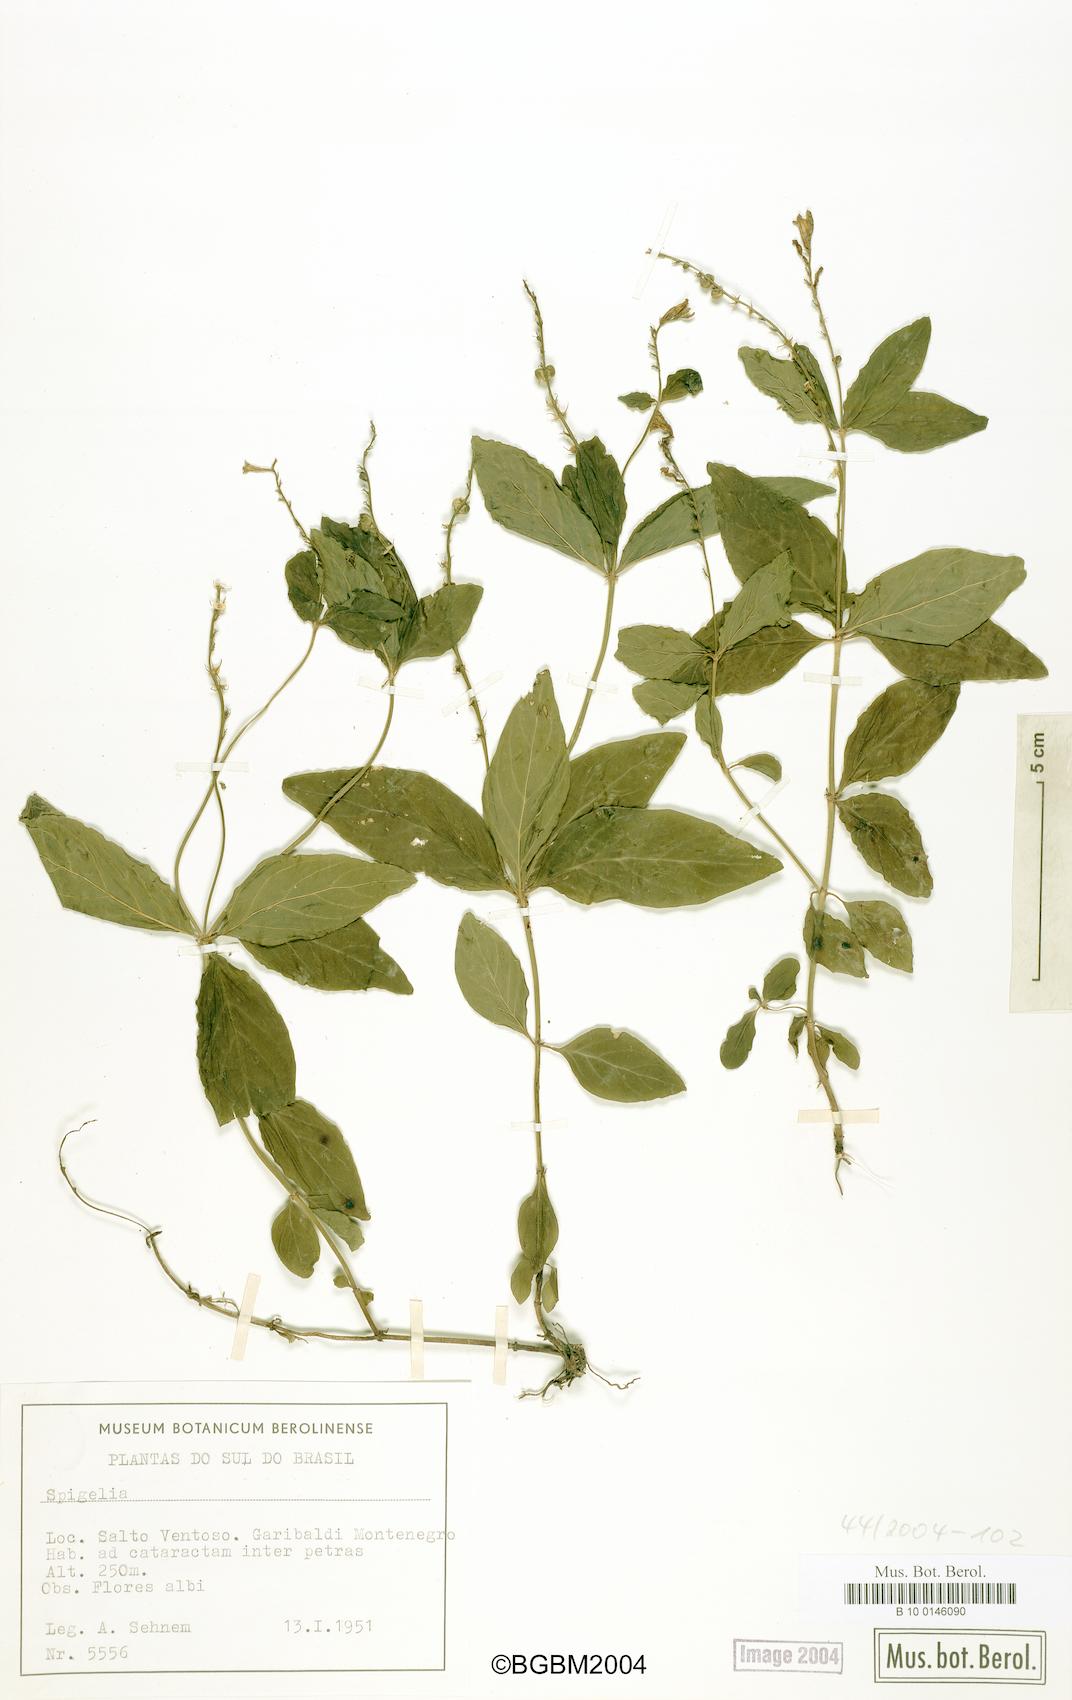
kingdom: Plantae
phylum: Tracheophyta
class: Magnoliopsida
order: Gentianales
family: Loganiaceae
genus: Spigelia
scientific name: Spigelia
